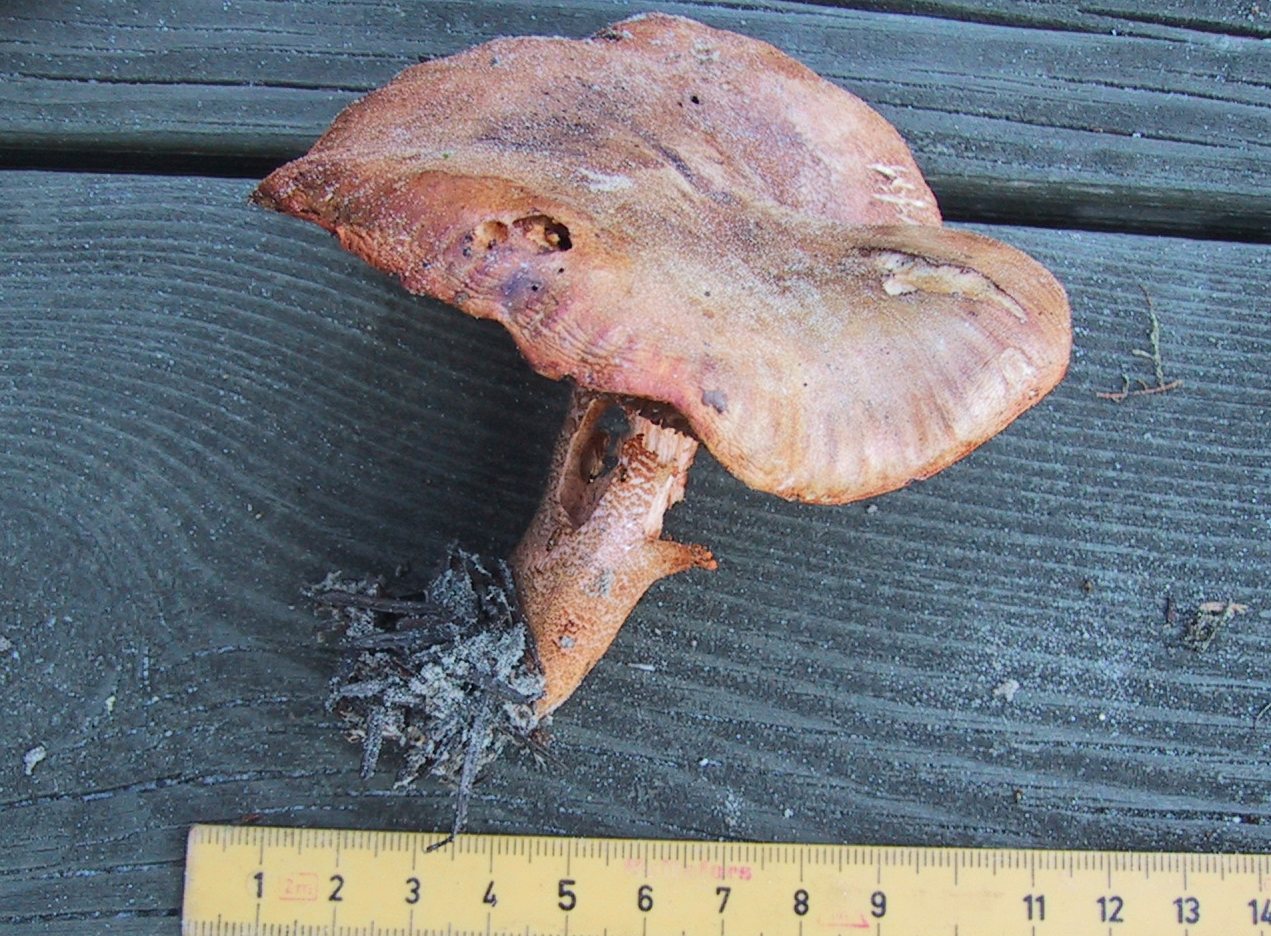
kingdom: Fungi
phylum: Basidiomycota
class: Agaricomycetes
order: Agaricales
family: Tricholomataceae
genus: Tricholoma
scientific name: Tricholoma aurantium
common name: orangegul ridderhat
